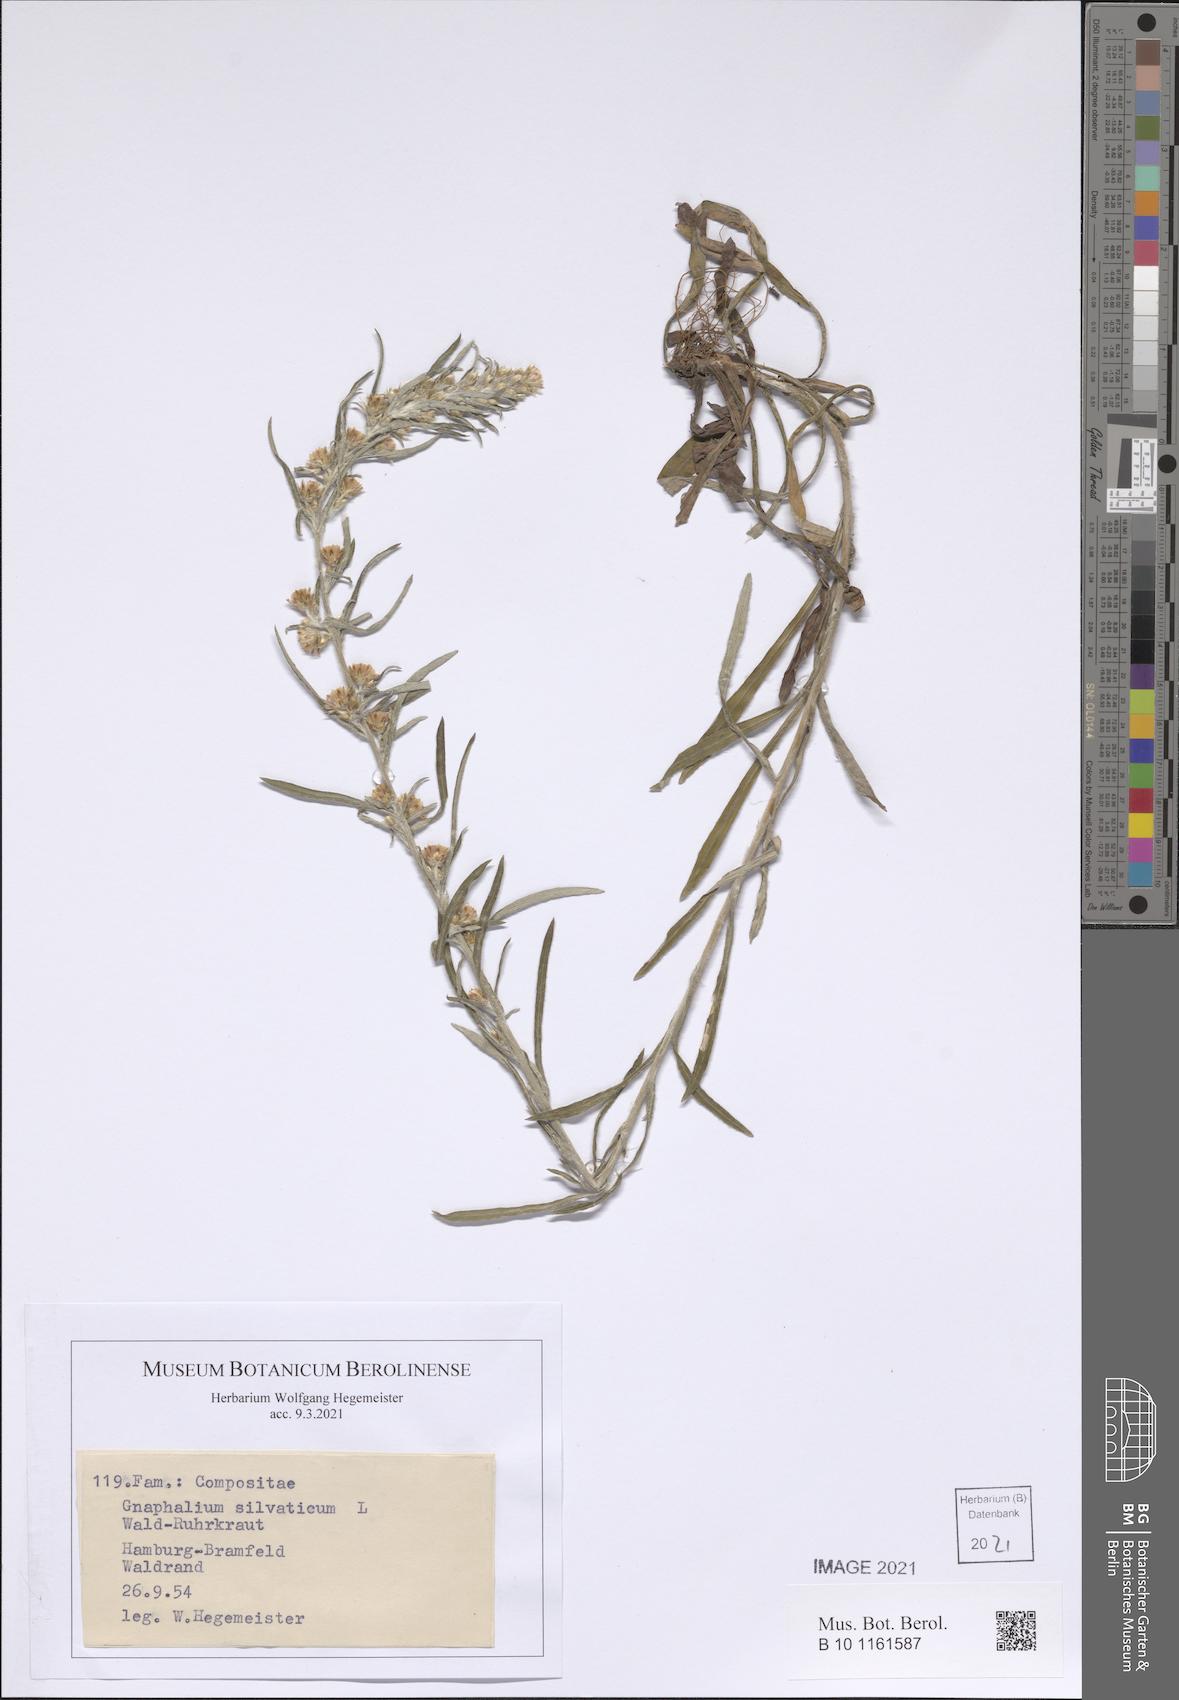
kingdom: Plantae
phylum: Tracheophyta
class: Magnoliopsida
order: Asterales
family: Asteraceae
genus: Omalotheca
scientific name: Omalotheca sylvatica
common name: Heath cudweed
